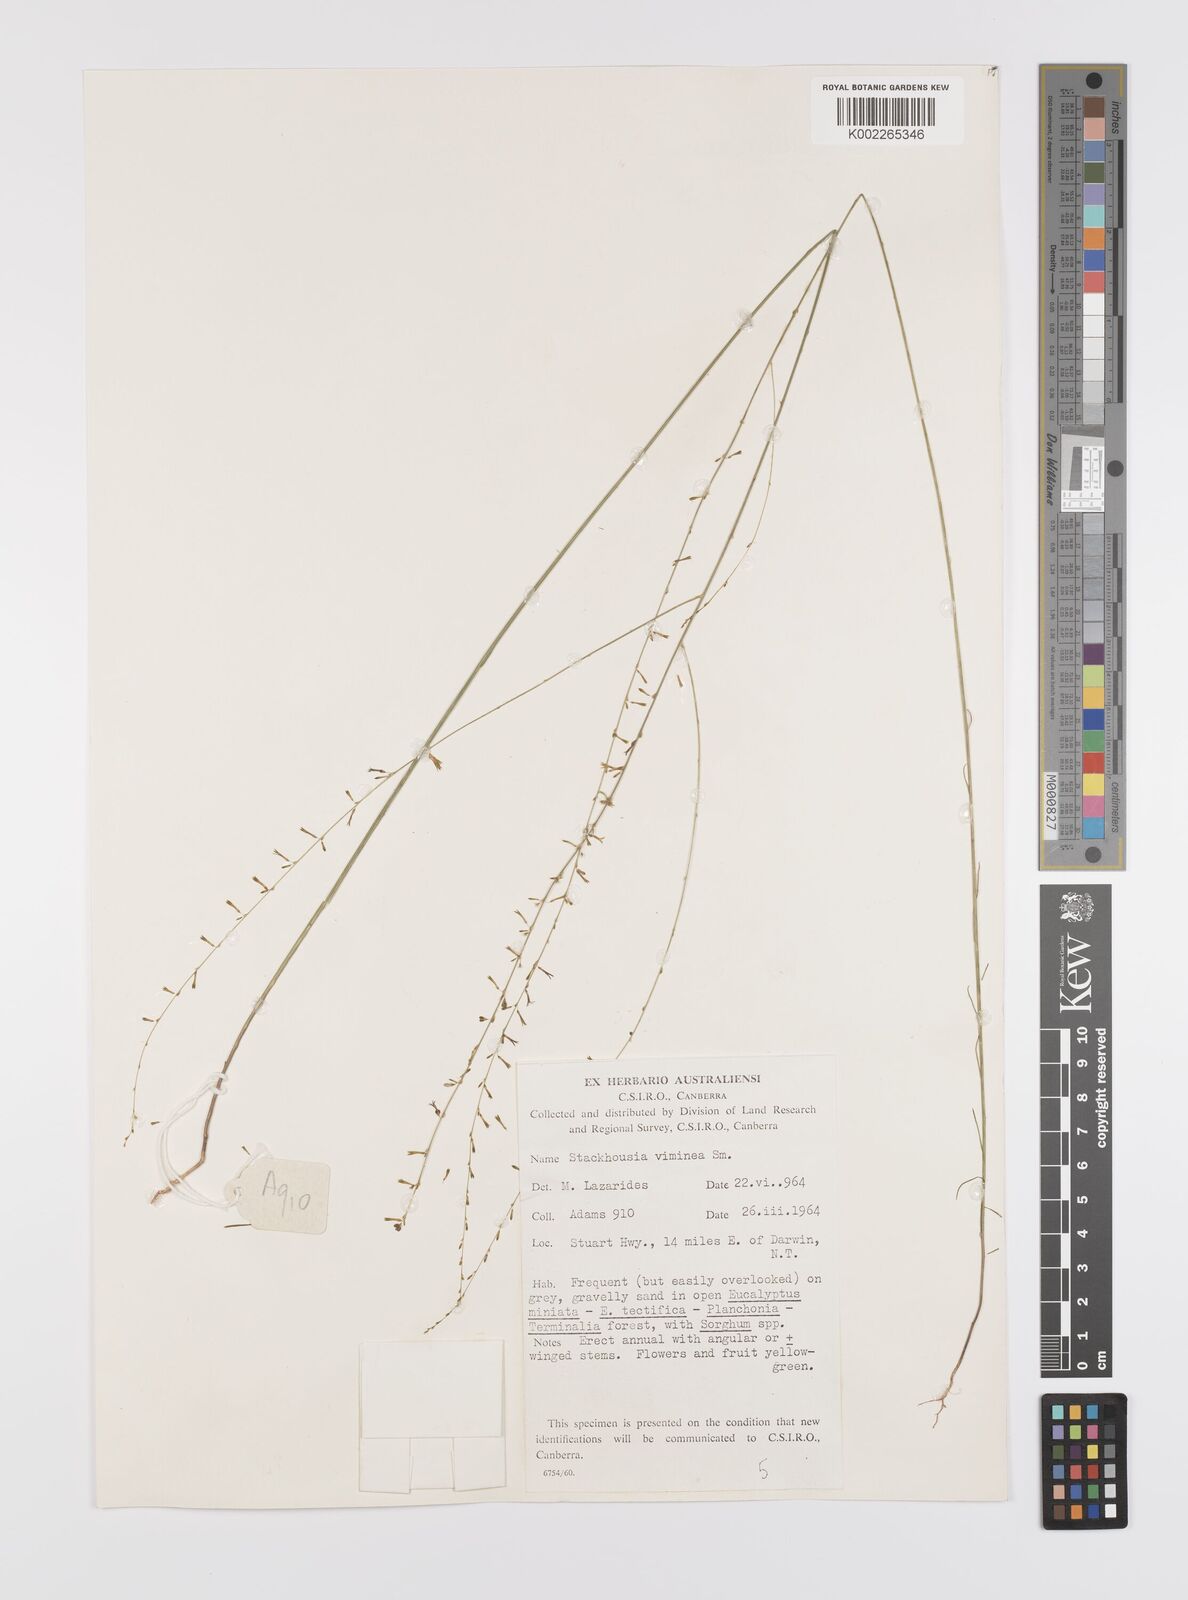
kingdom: Plantae
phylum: Tracheophyta
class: Magnoliopsida
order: Celastrales
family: Celastraceae
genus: Stackhousia
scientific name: Stackhousia viminea
